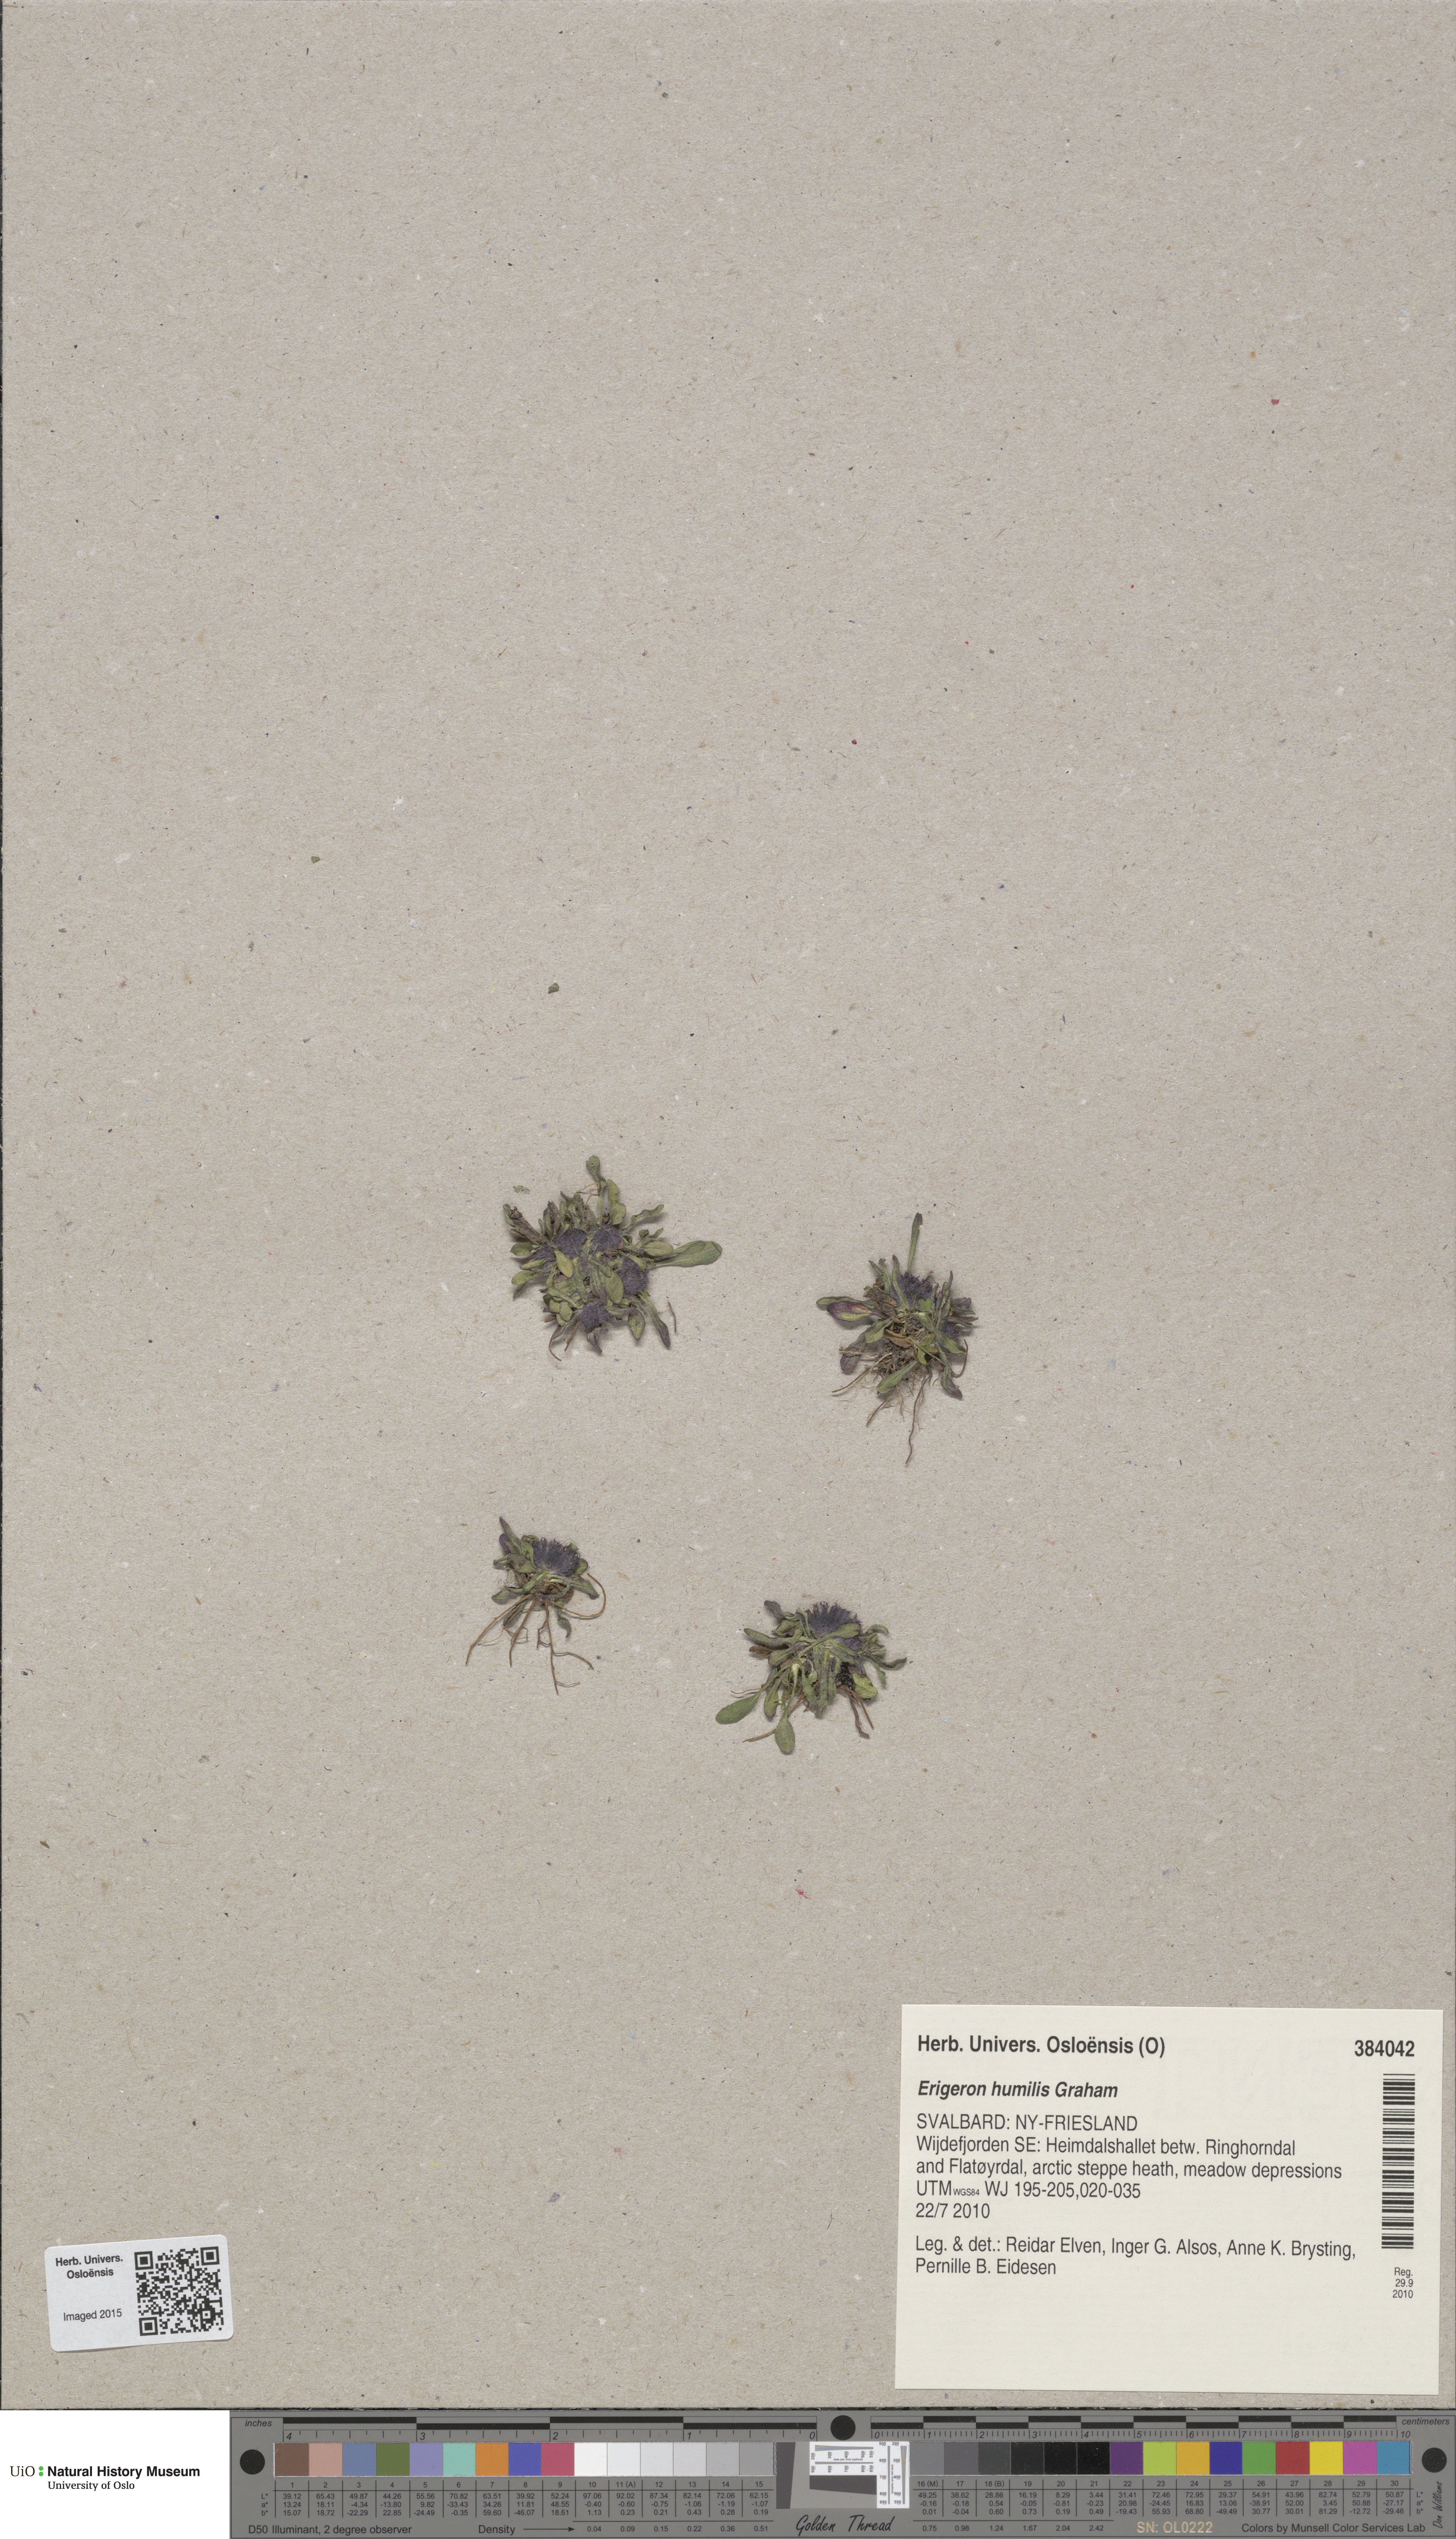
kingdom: Plantae
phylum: Tracheophyta
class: Magnoliopsida
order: Asterales
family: Asteraceae
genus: Erigeron
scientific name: Erigeron humilis
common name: Arctic-alpine fleabane
